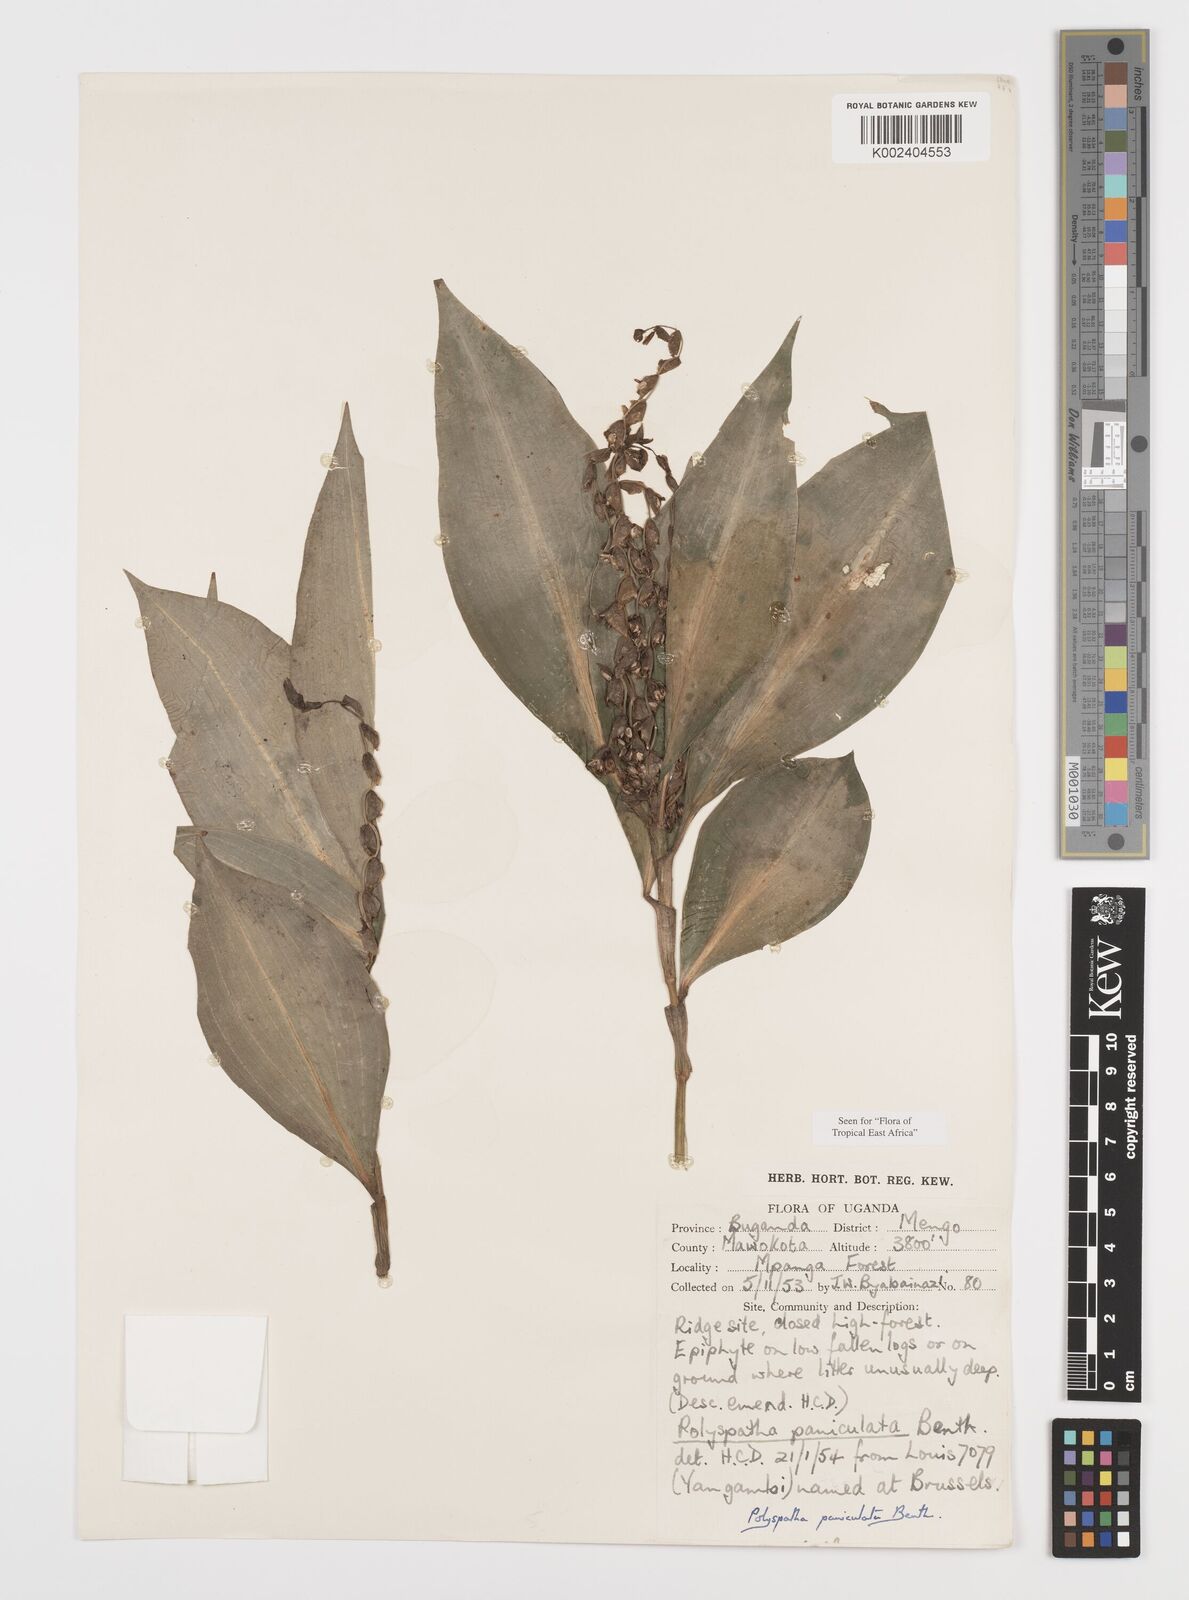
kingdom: Plantae
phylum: Tracheophyta
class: Liliopsida
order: Commelinales
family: Commelinaceae
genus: Polyspatha
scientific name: Polyspatha paniculata
